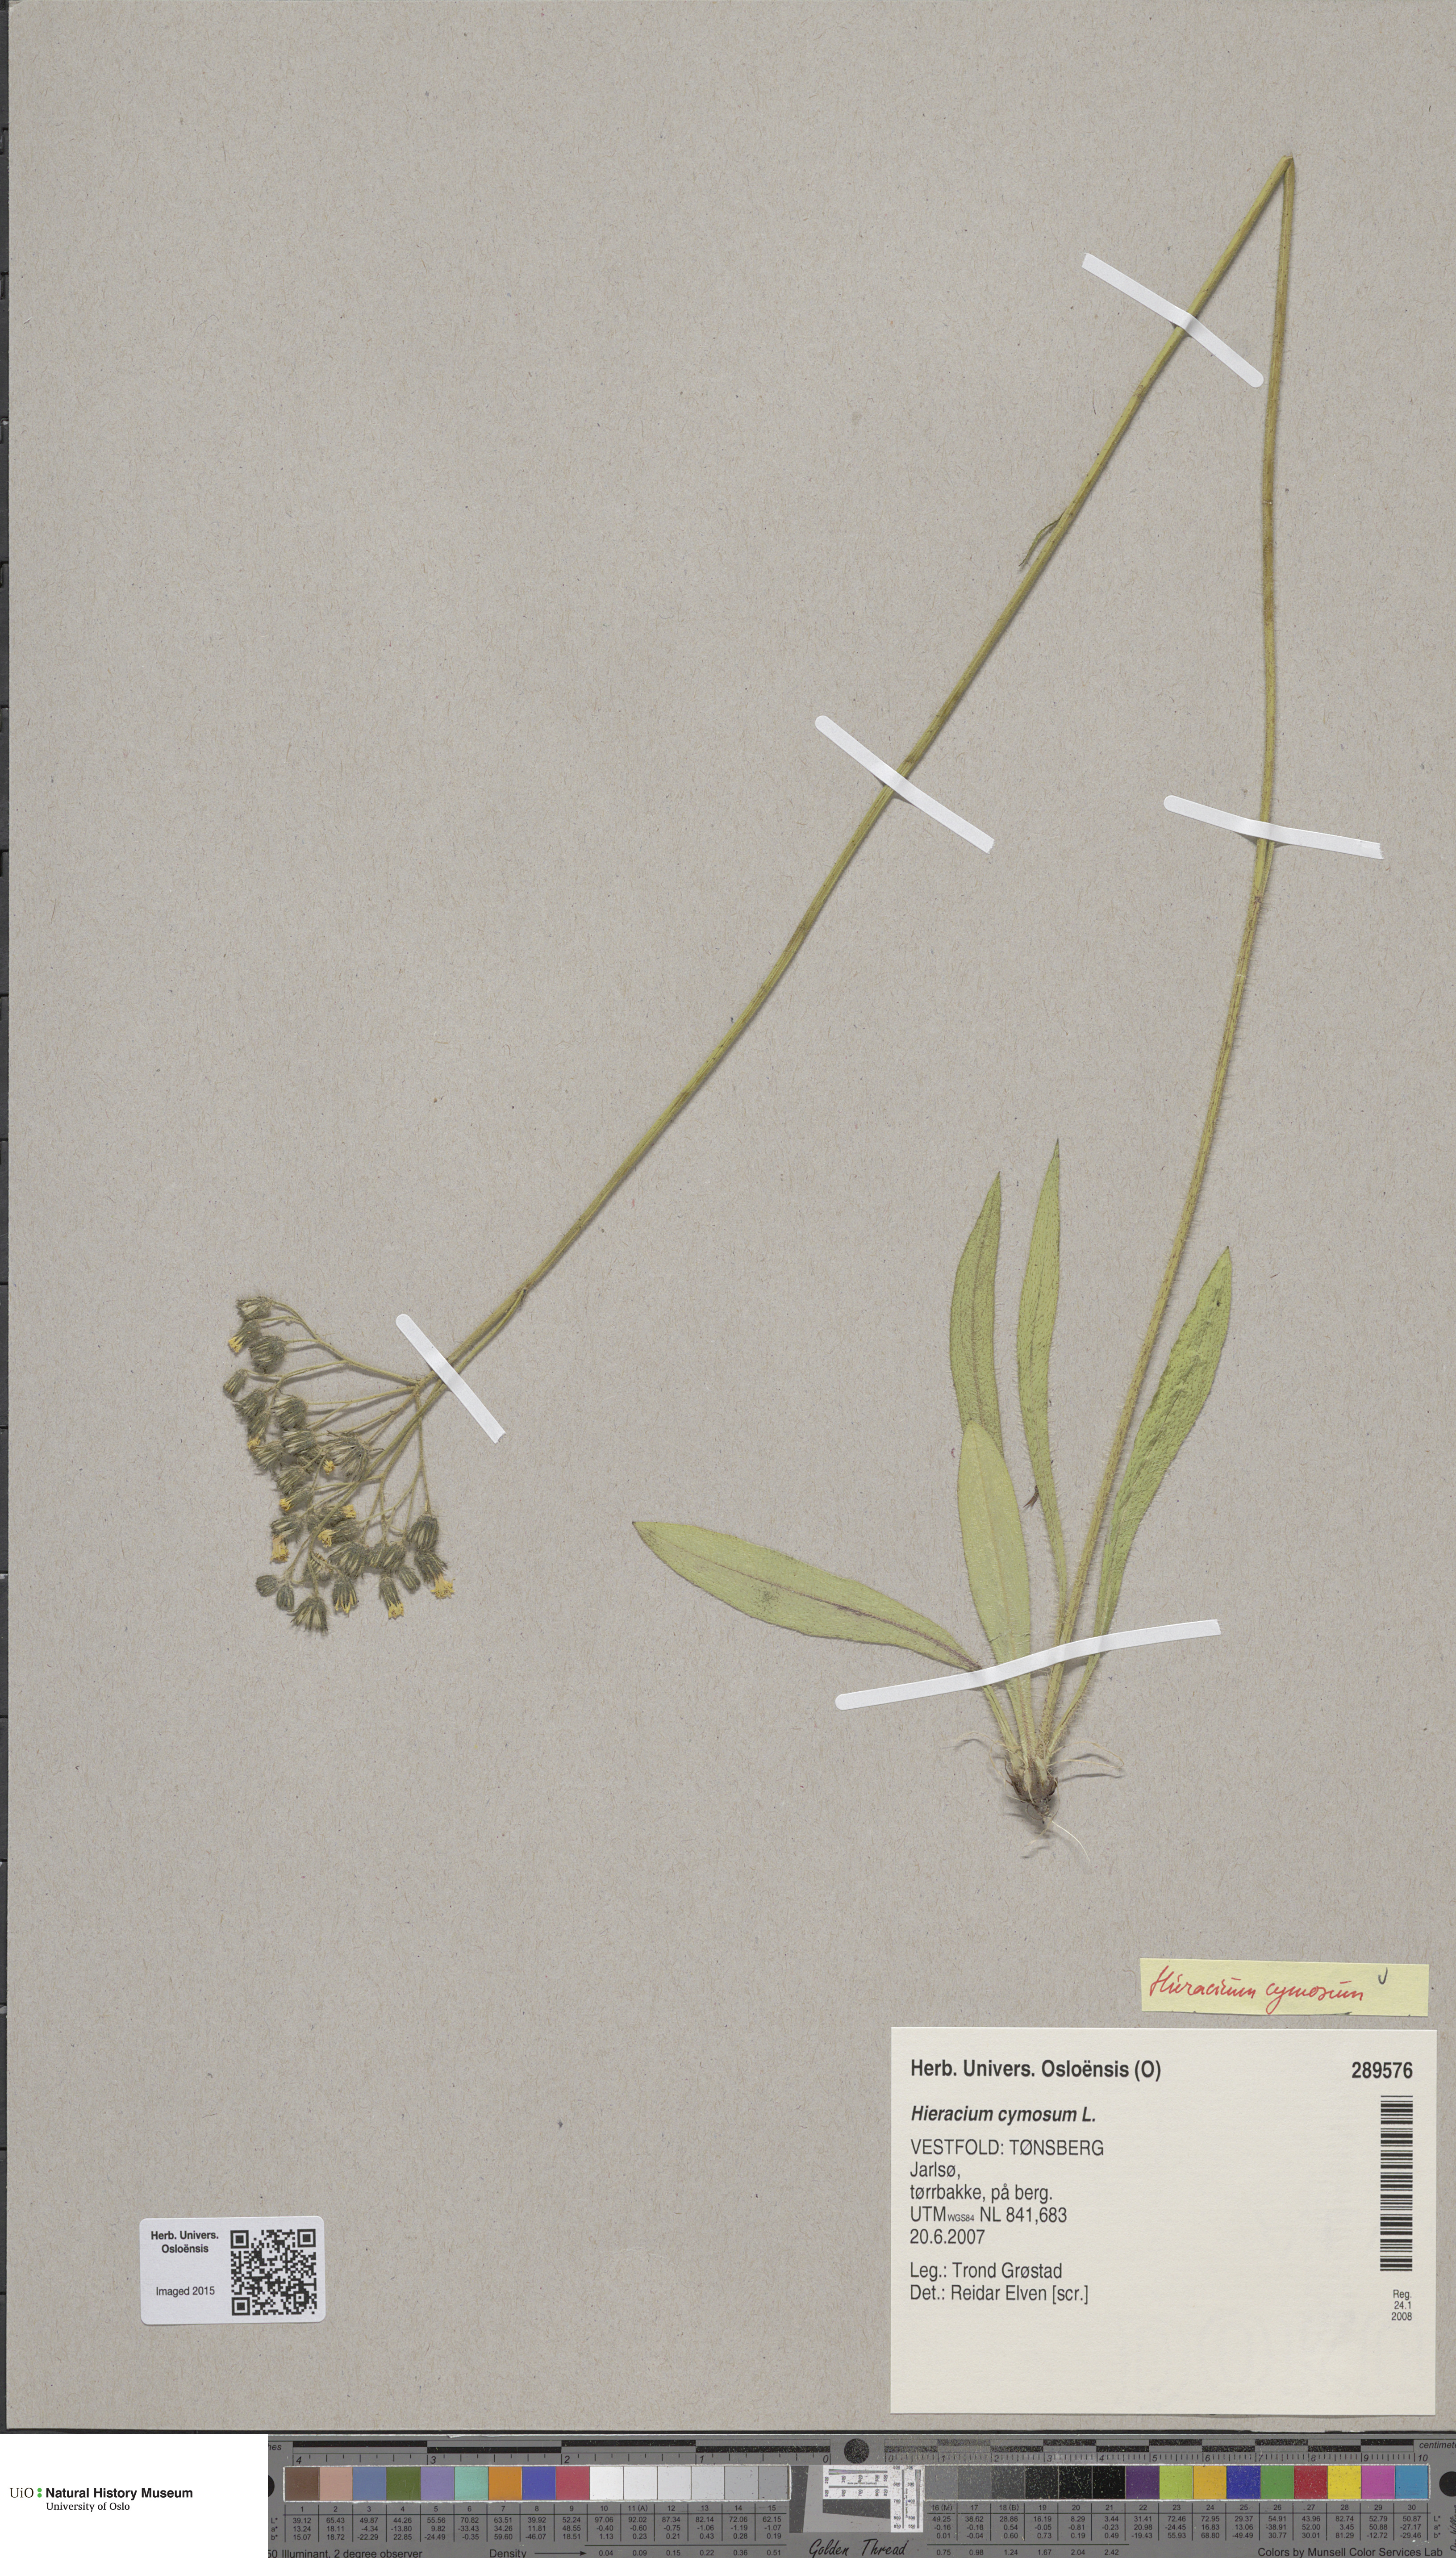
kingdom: Plantae
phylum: Tracheophyta
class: Magnoliopsida
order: Asterales
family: Asteraceae
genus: Pilosella
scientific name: Pilosella cymosa
